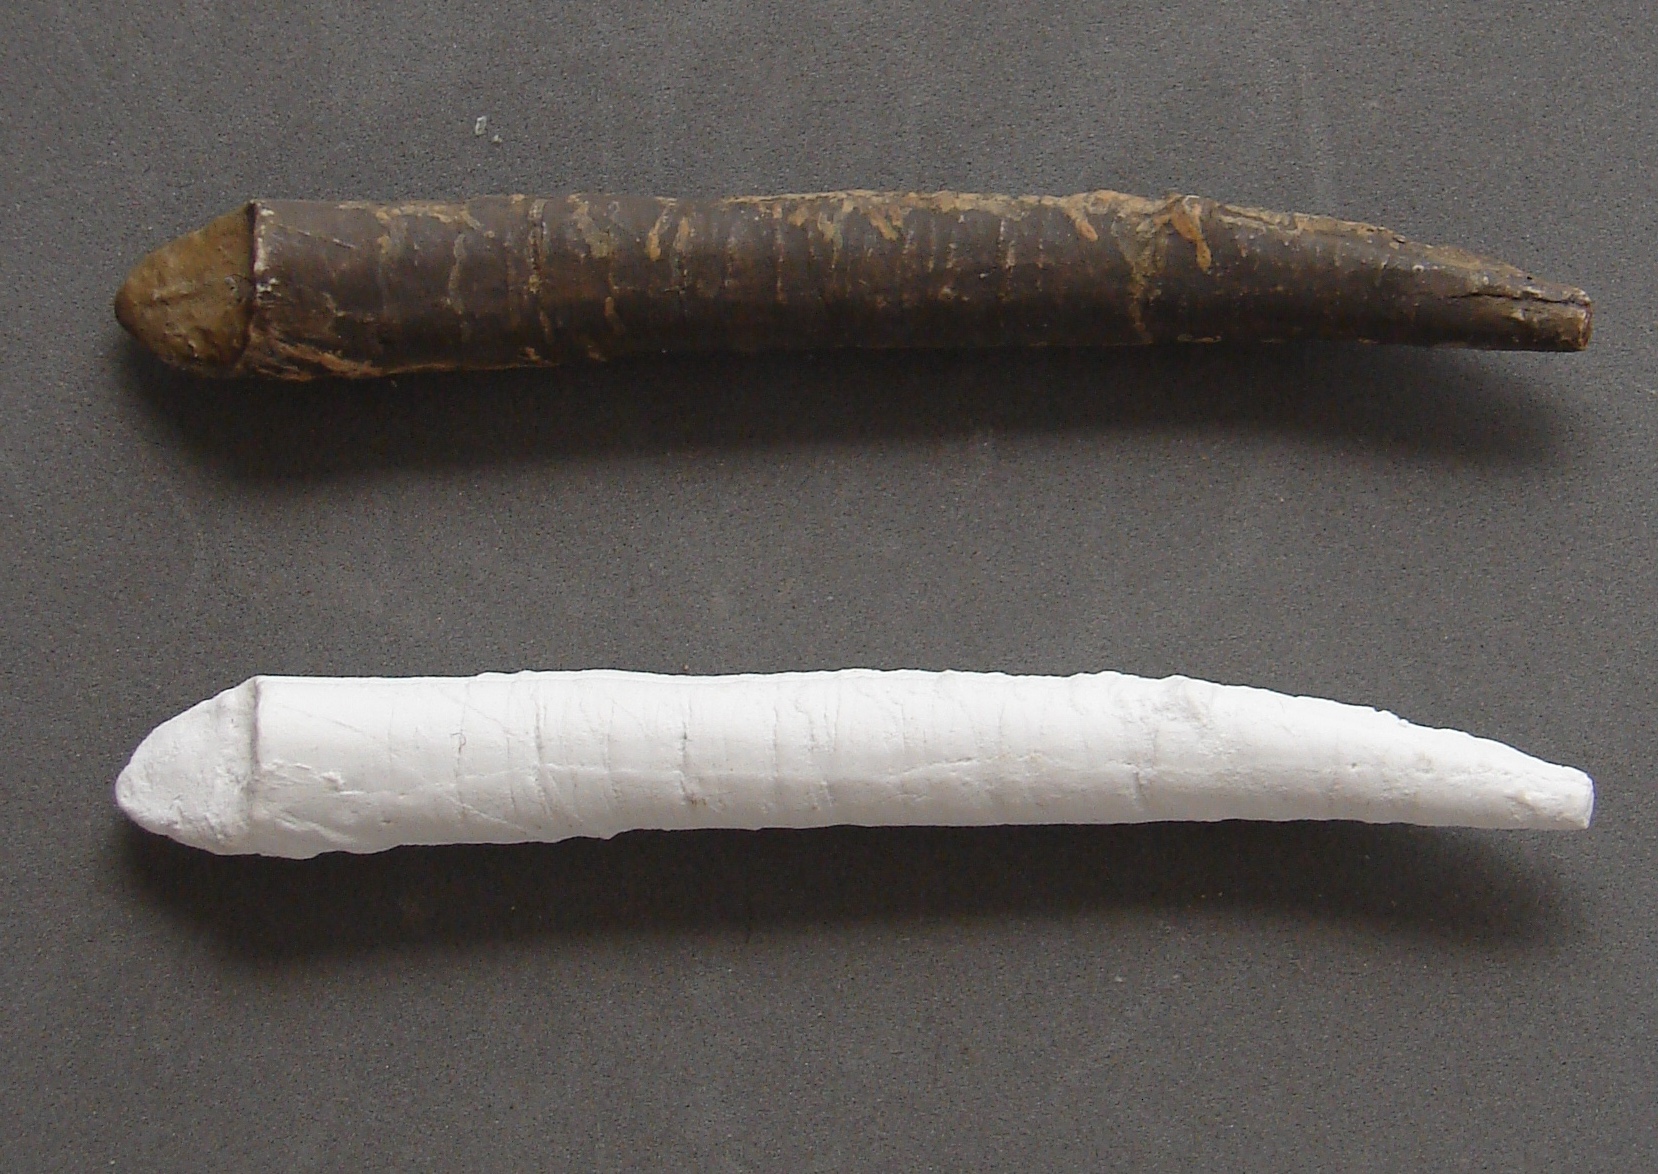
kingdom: Animalia
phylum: Mollusca
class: Cephalopoda
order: Belemnitida
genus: Holcobelus
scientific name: Holcobelus
